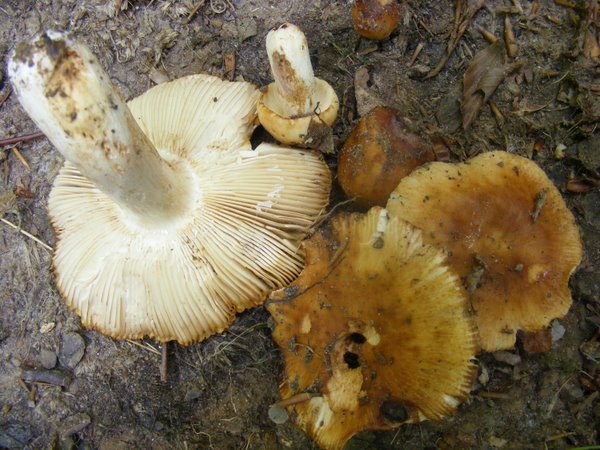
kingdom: Fungi
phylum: Basidiomycota
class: Agaricomycetes
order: Russulales
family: Russulaceae
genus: Russula
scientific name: Russula foetens
